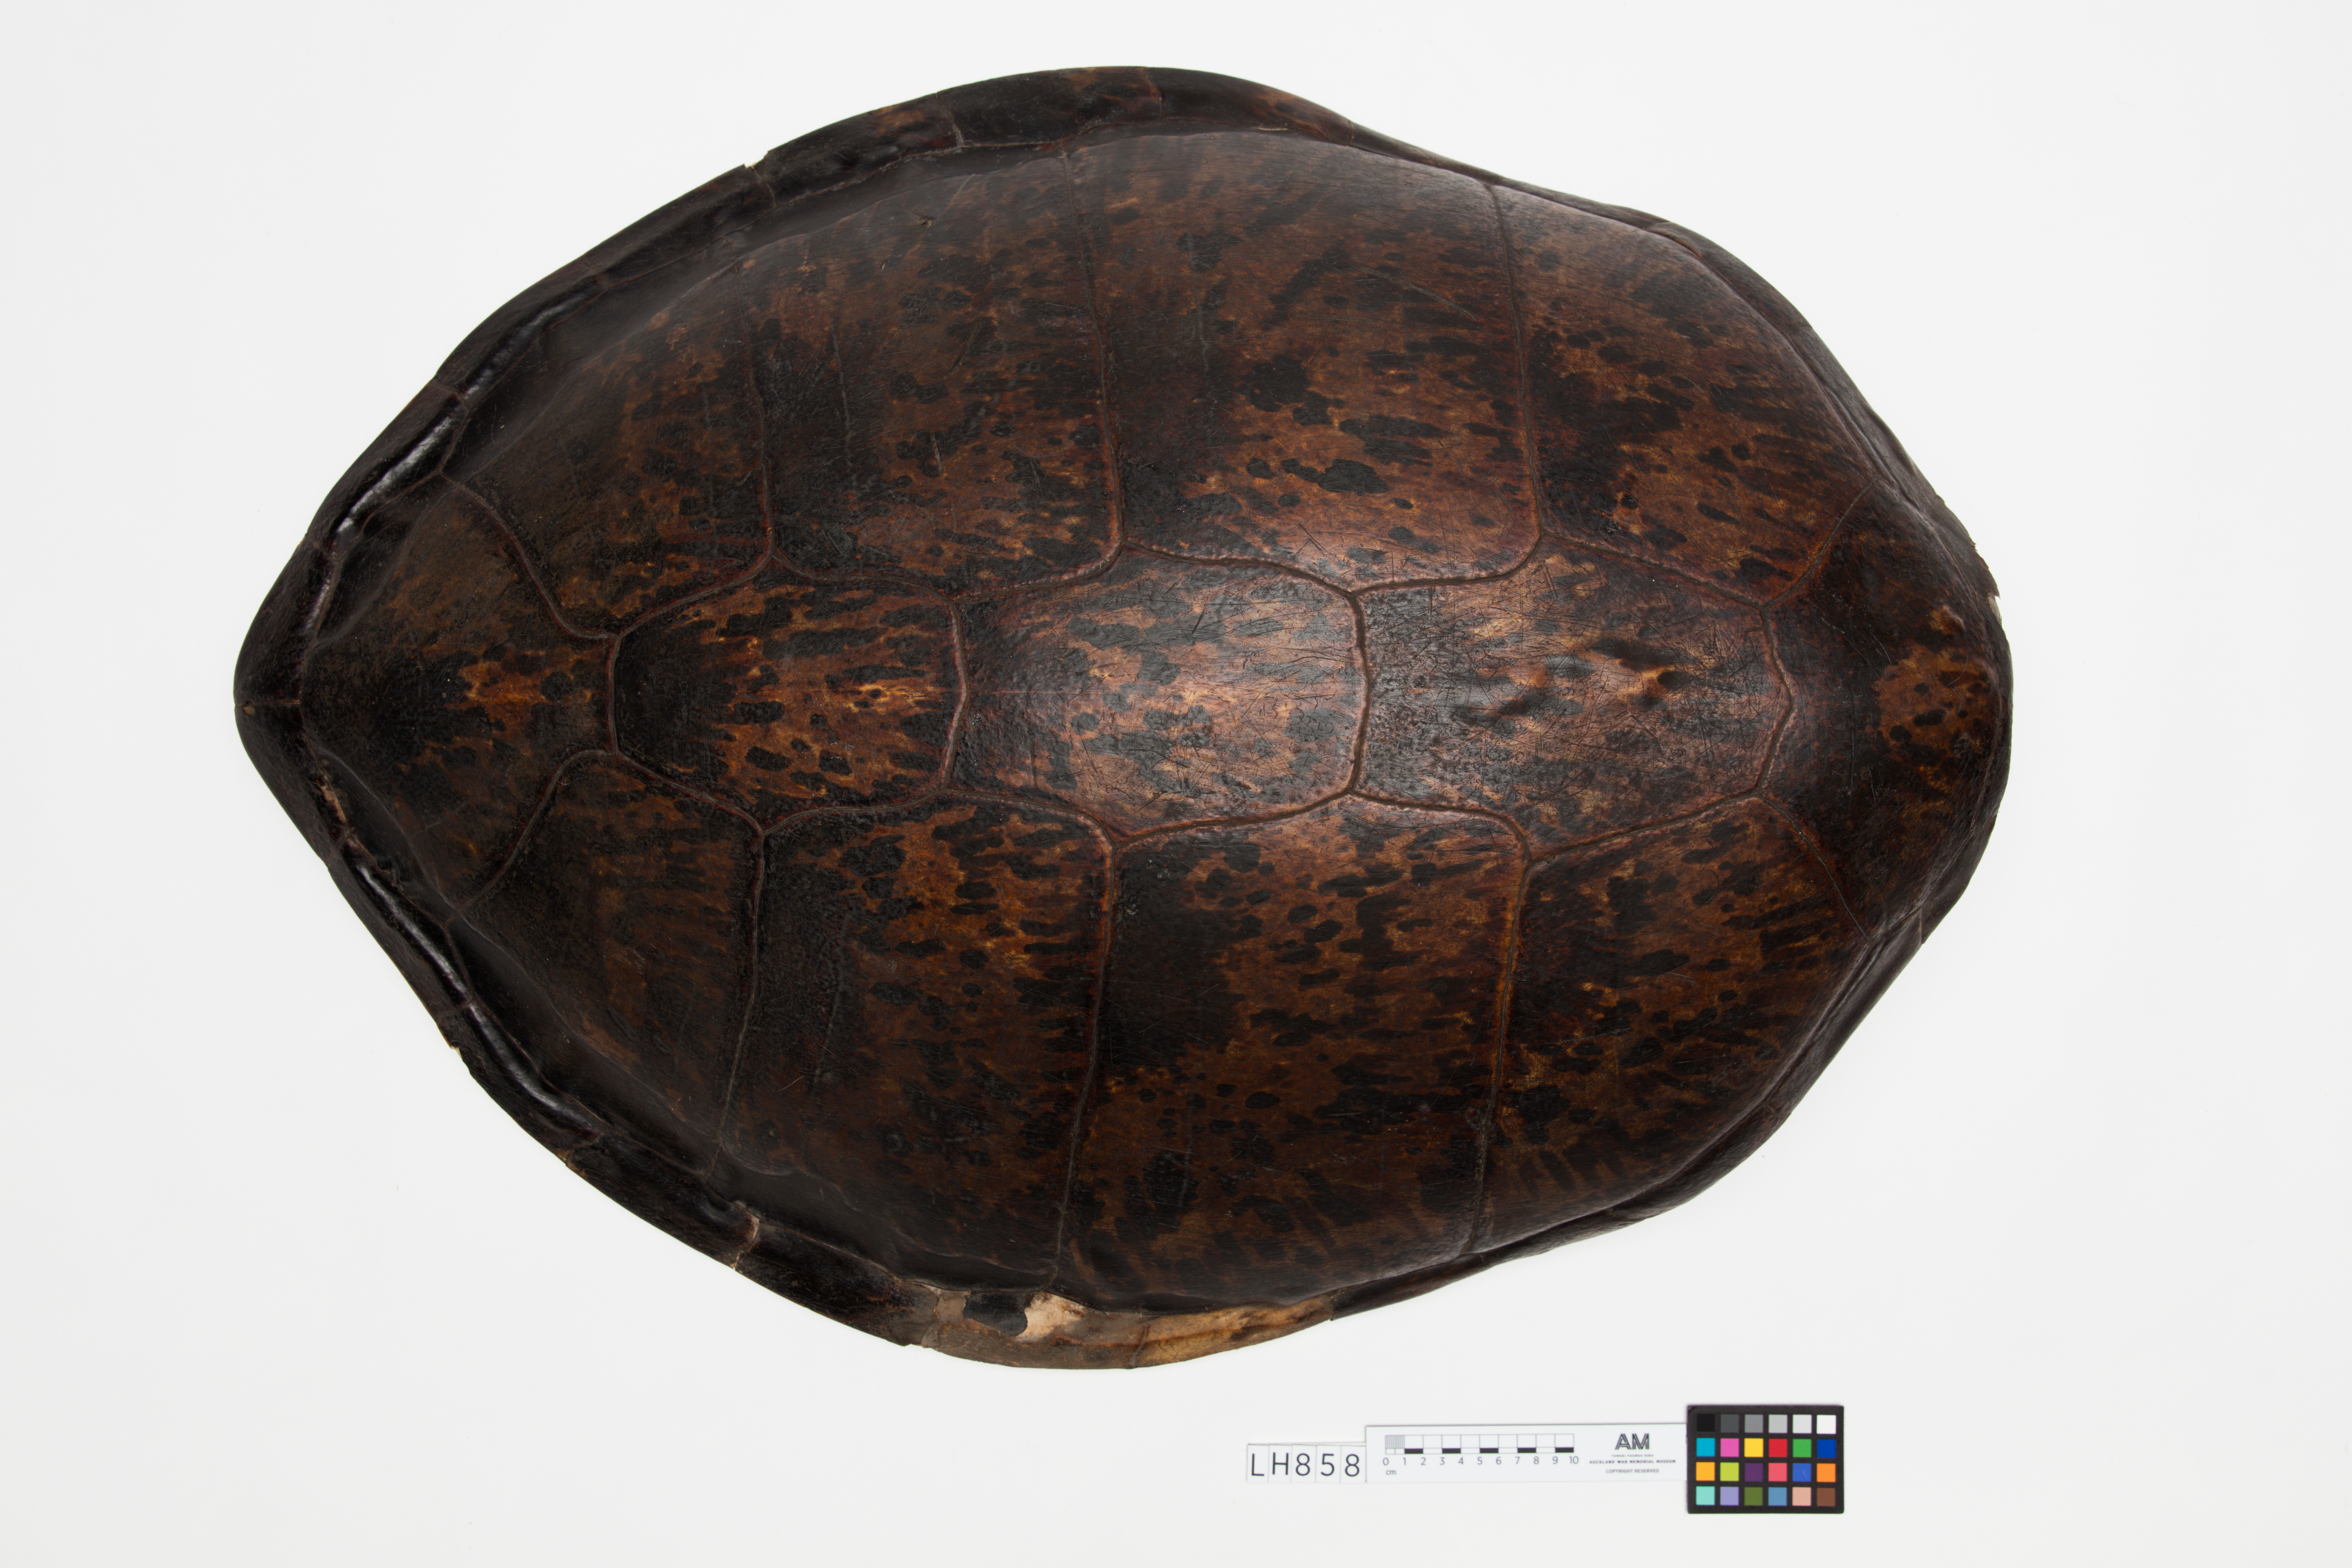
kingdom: Animalia
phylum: Chordata
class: Testudines
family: Cheloniidae
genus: Chelonia
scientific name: Chelonia mydas
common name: Green turtle
